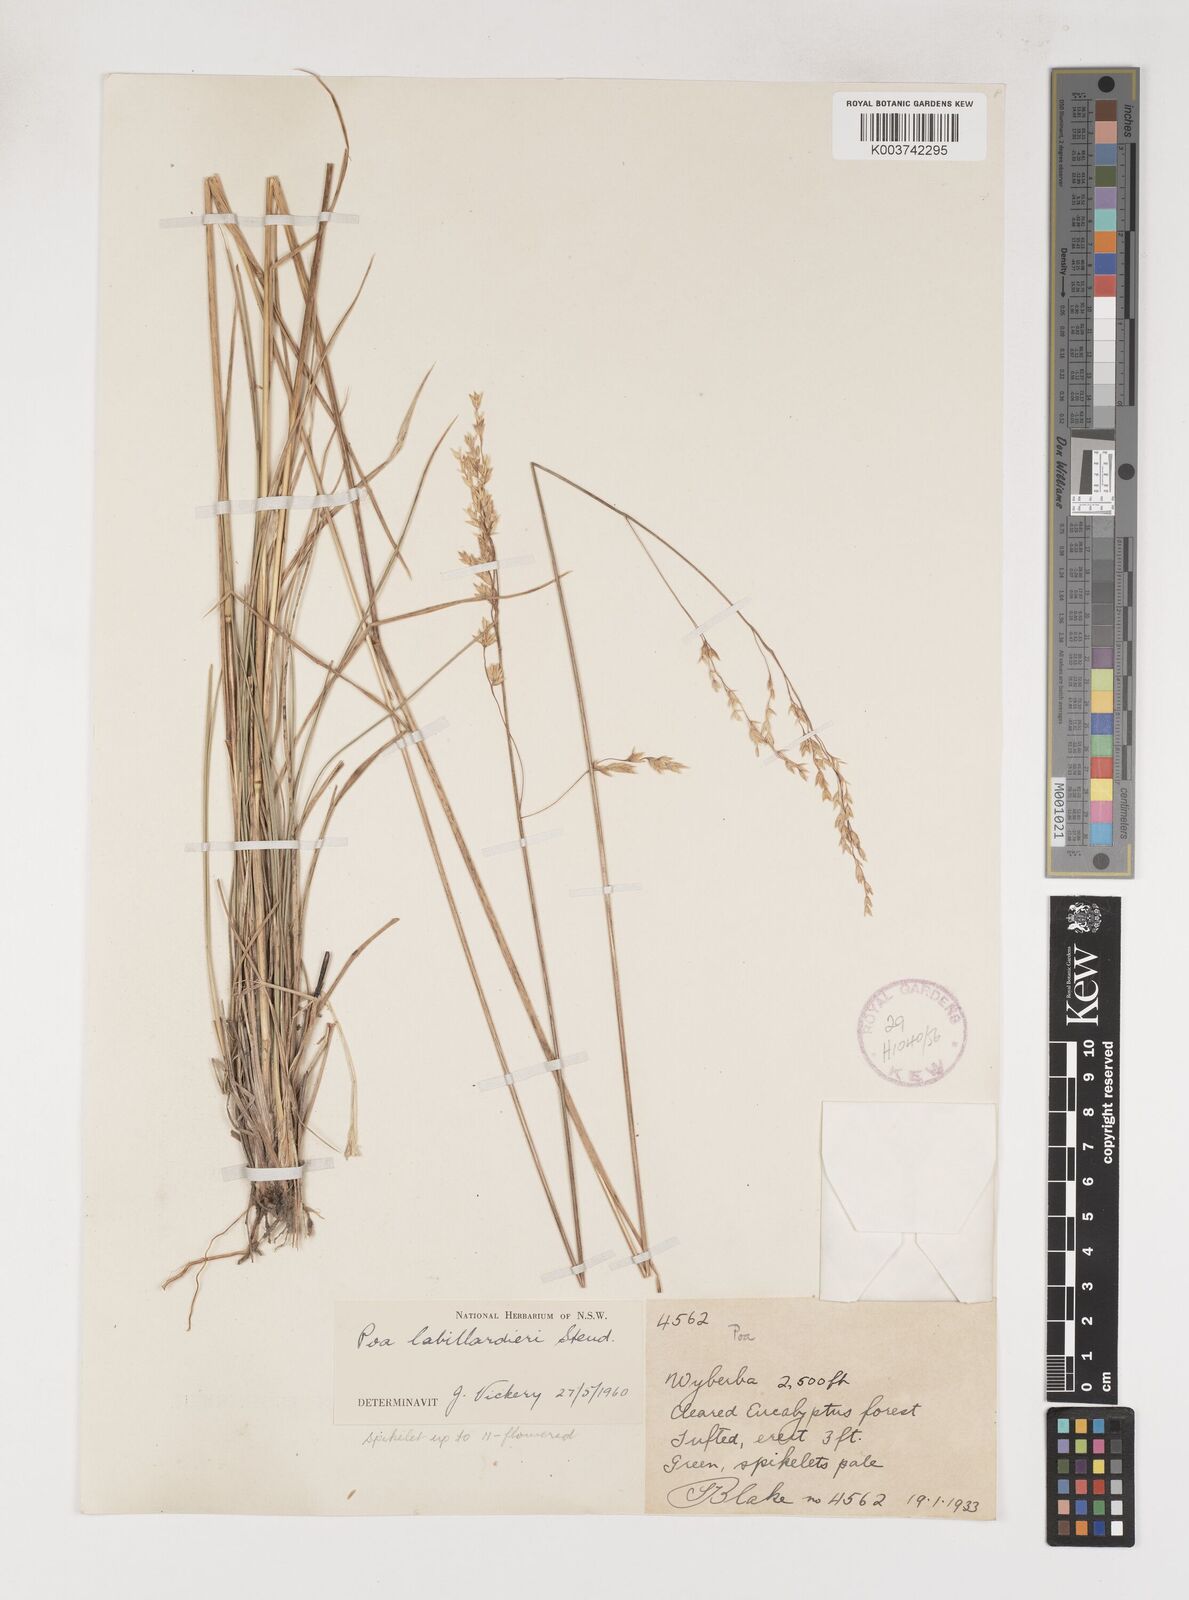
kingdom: Plantae
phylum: Tracheophyta
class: Liliopsida
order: Poales
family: Poaceae
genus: Poa
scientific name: Poa labillardierei
